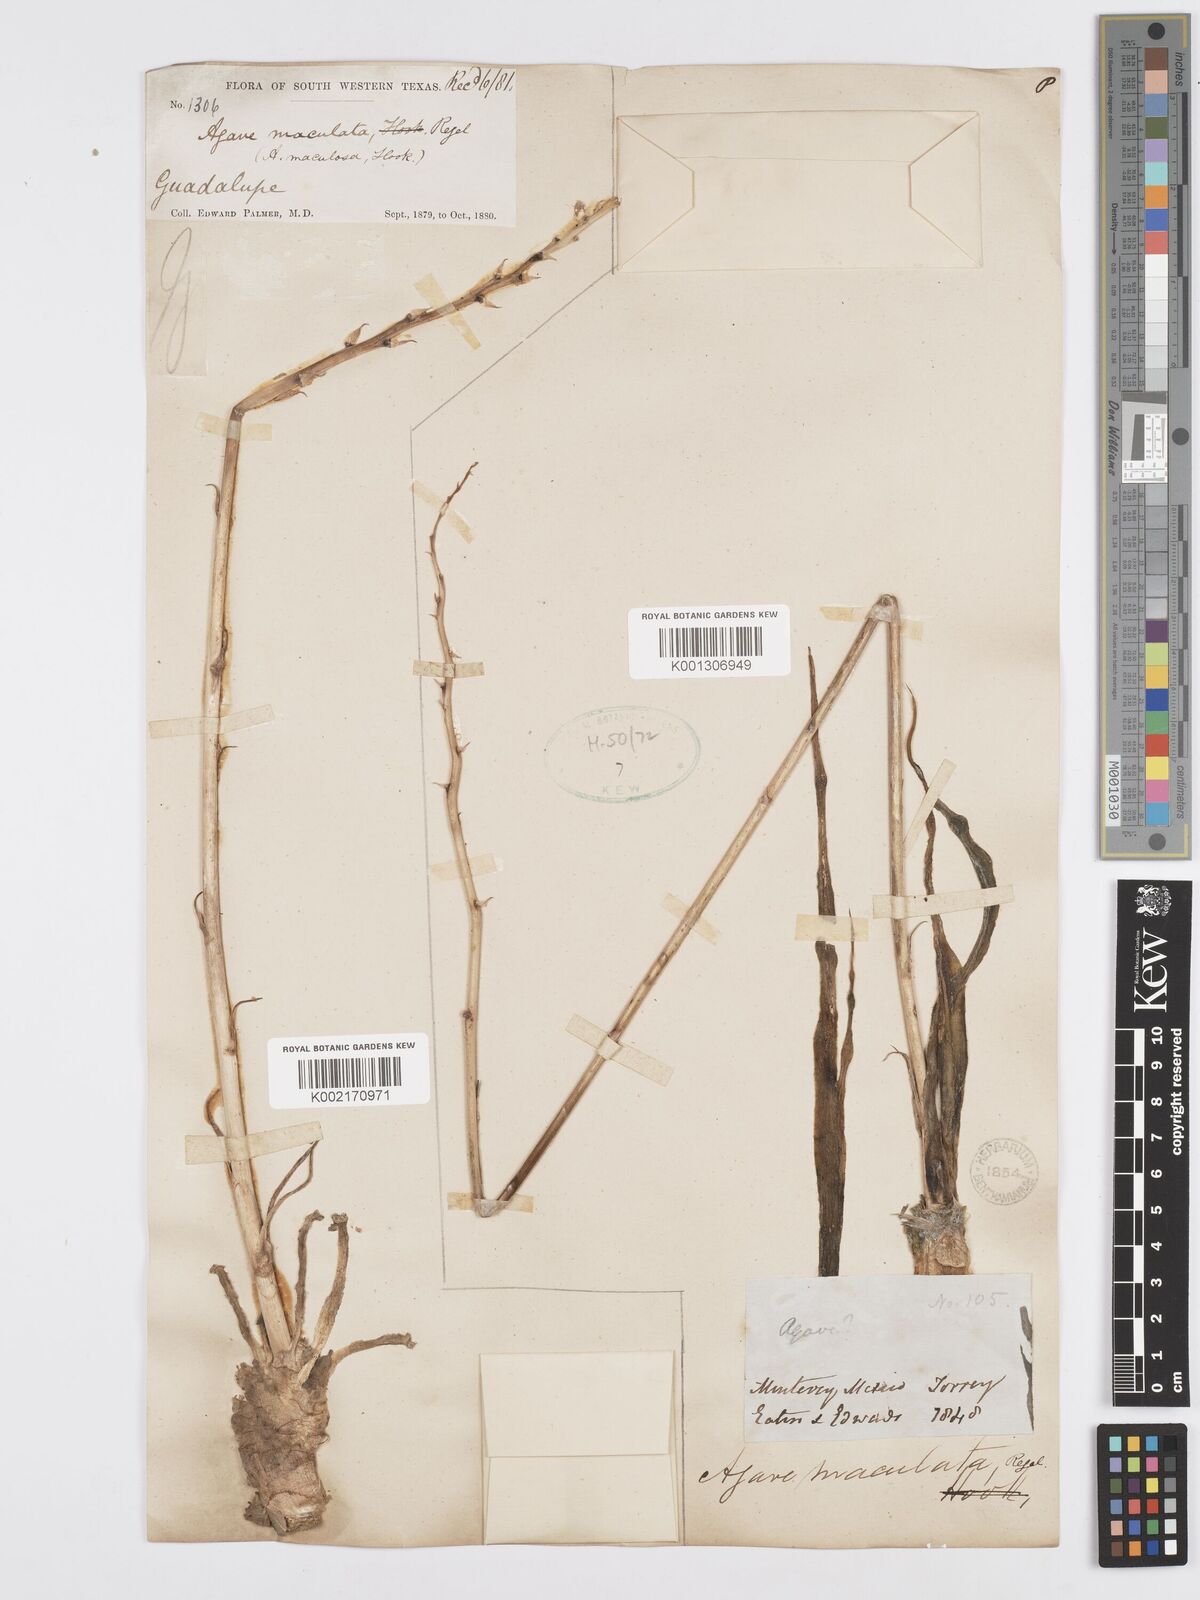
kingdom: Plantae
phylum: Tracheophyta
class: Liliopsida
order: Asparagales
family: Asparagaceae
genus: Agave
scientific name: Agave stictata
